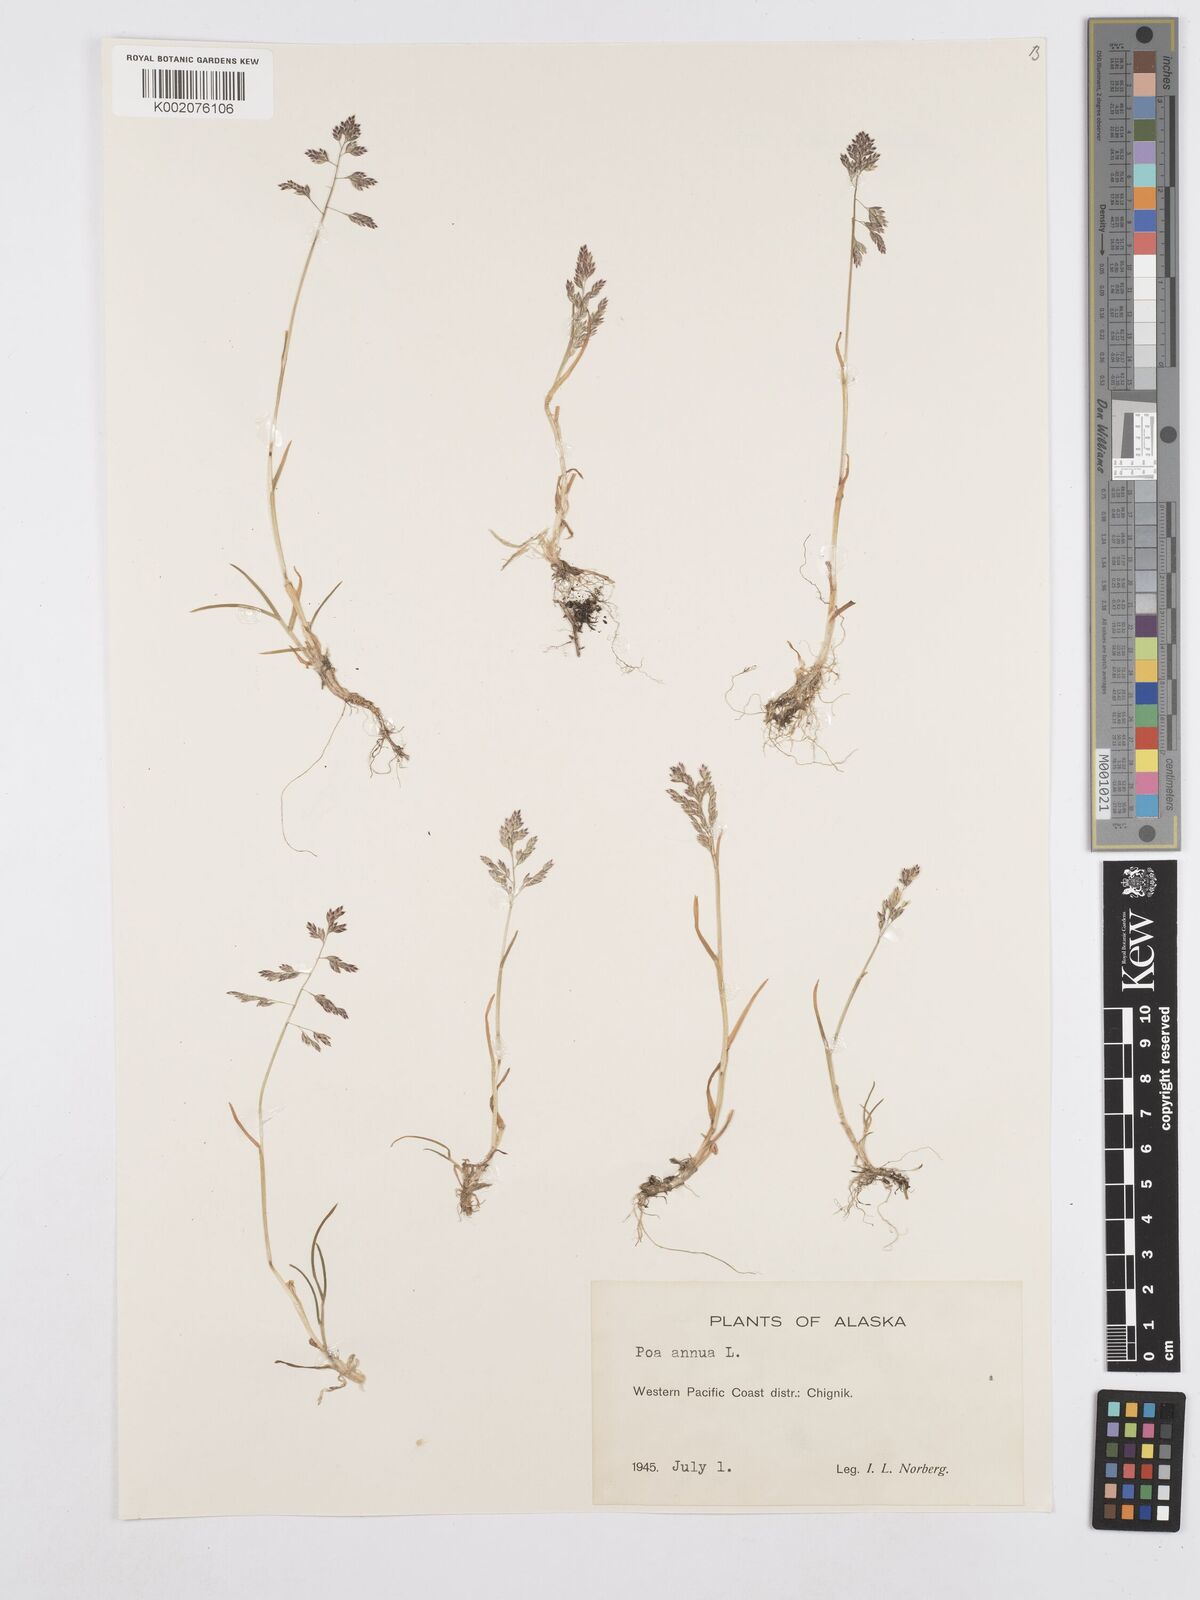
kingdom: Plantae
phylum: Tracheophyta
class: Liliopsida
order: Poales
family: Poaceae
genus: Poa
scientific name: Poa annua
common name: Annual bluegrass
